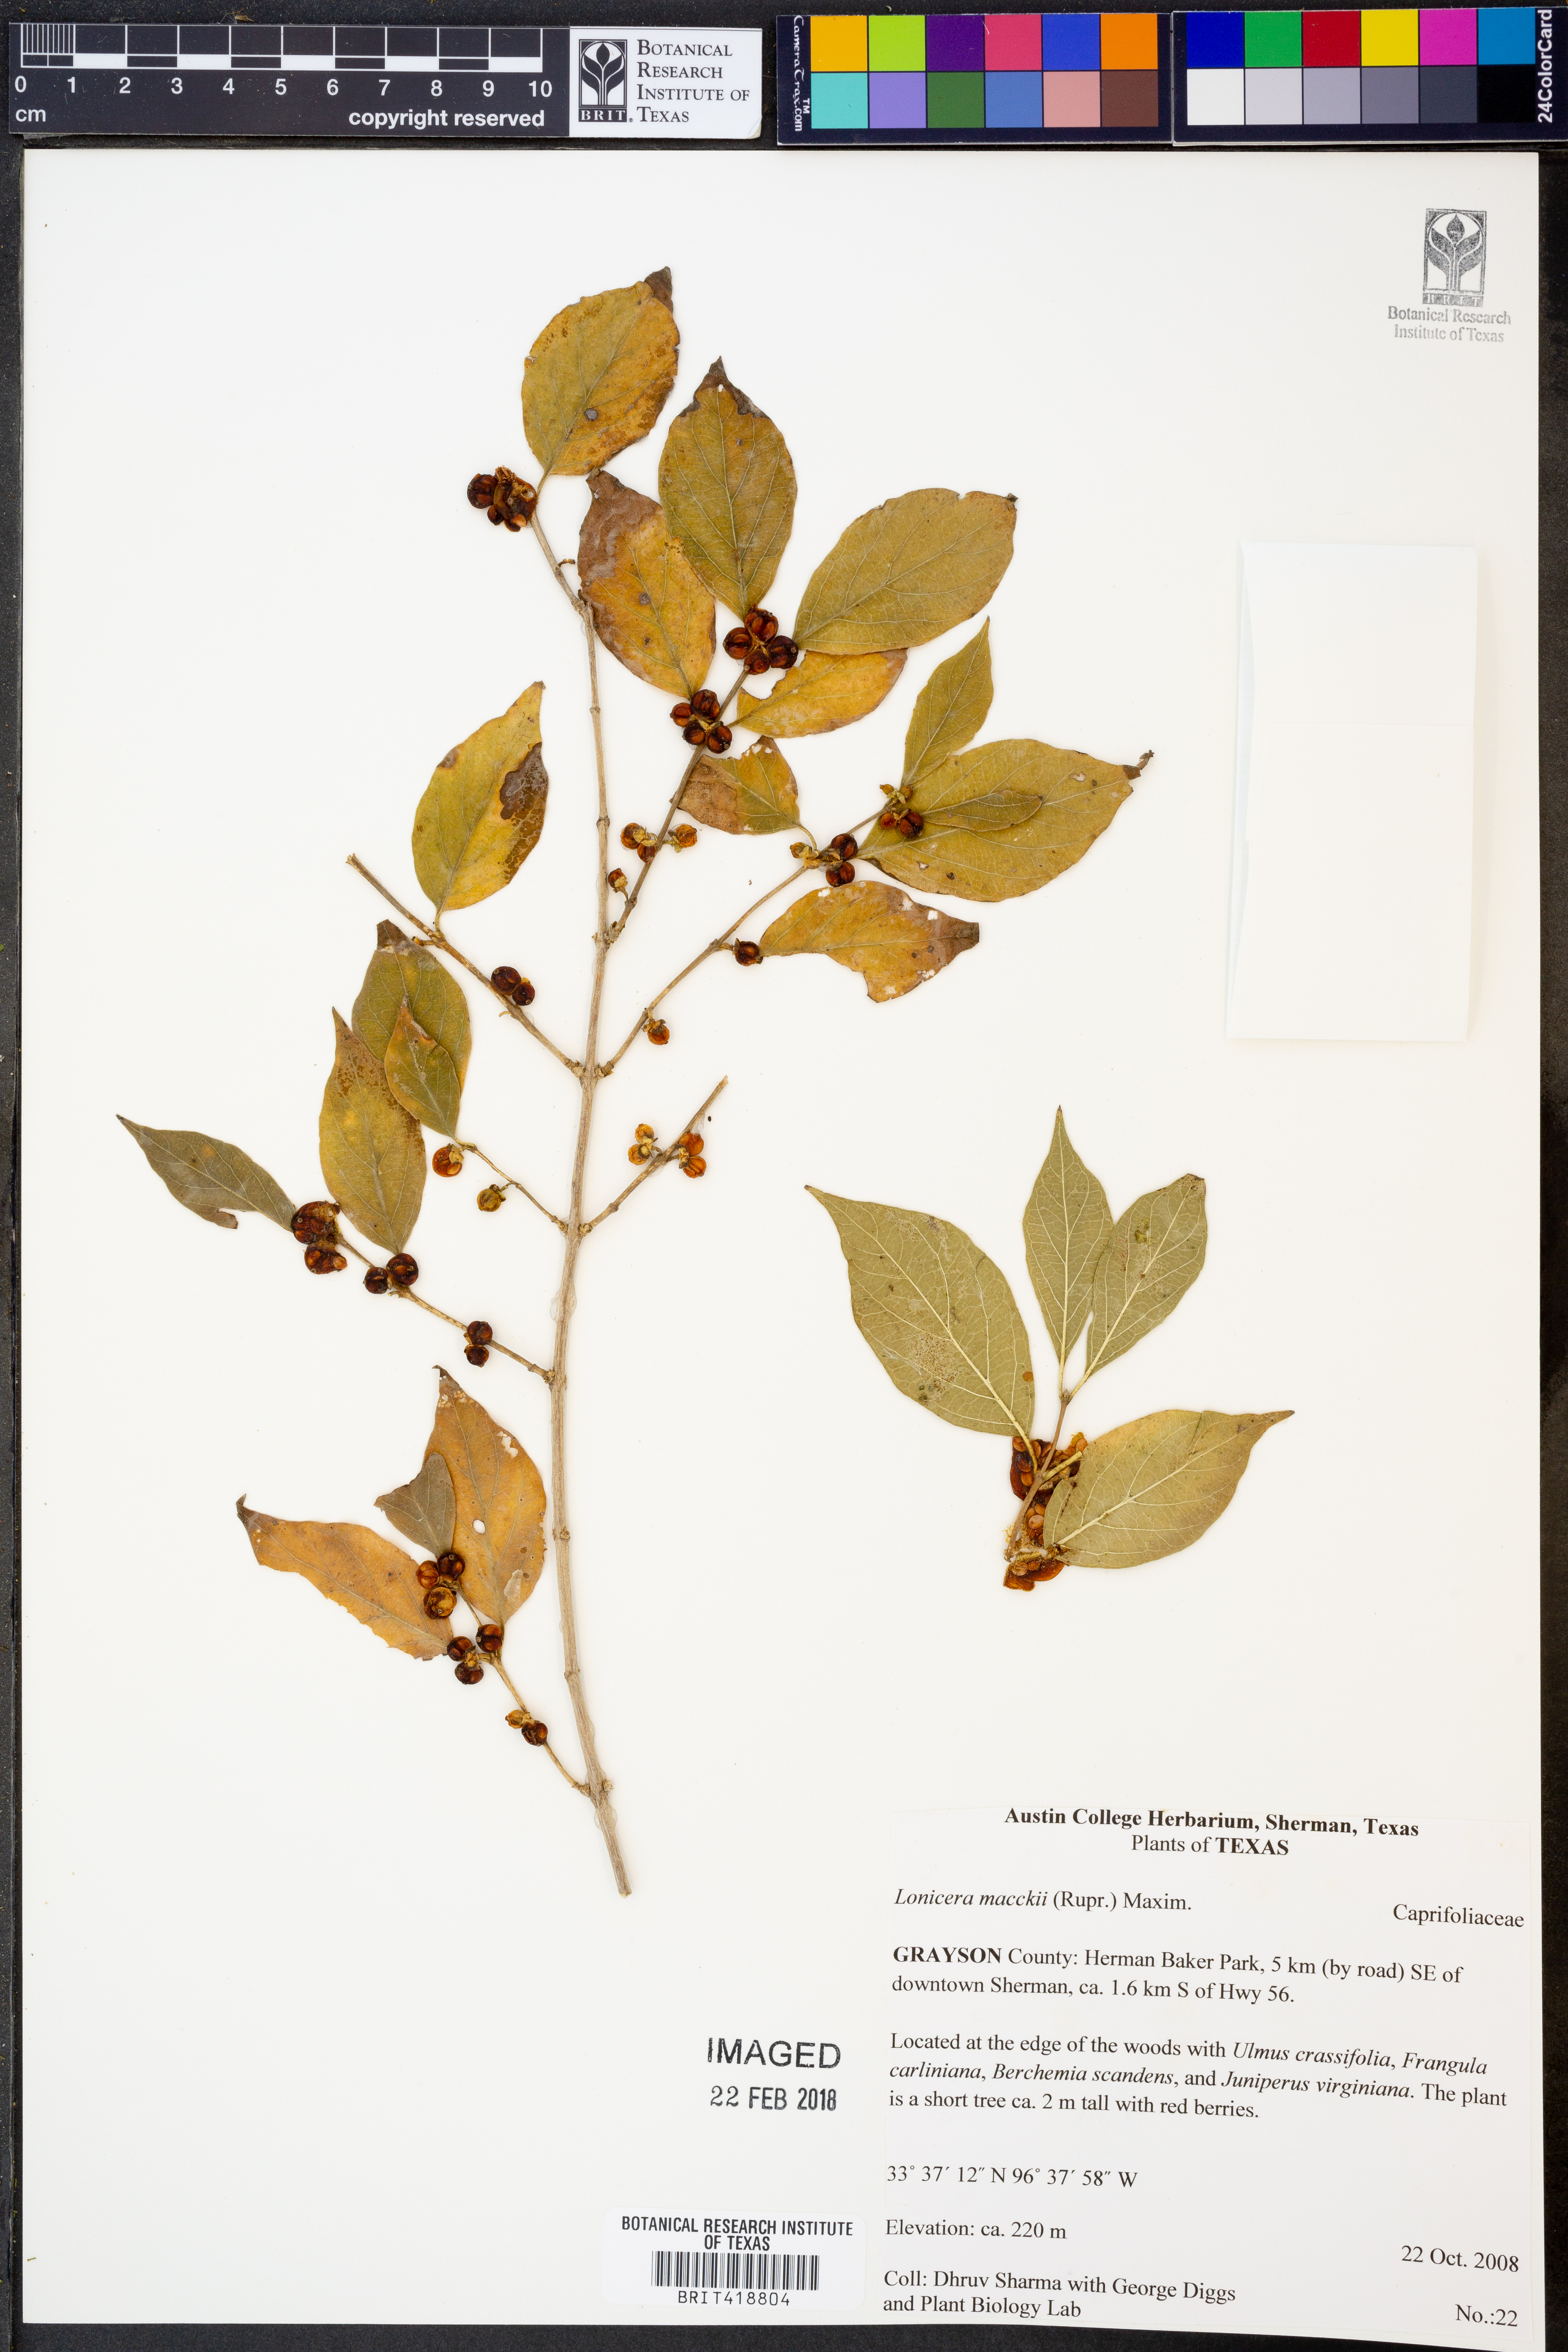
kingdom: Plantae
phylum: Tracheophyta
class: Magnoliopsida
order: Dipsacales
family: Caprifoliaceae
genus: Lonicera
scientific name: Lonicera maackii
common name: Amur honeysuckle
